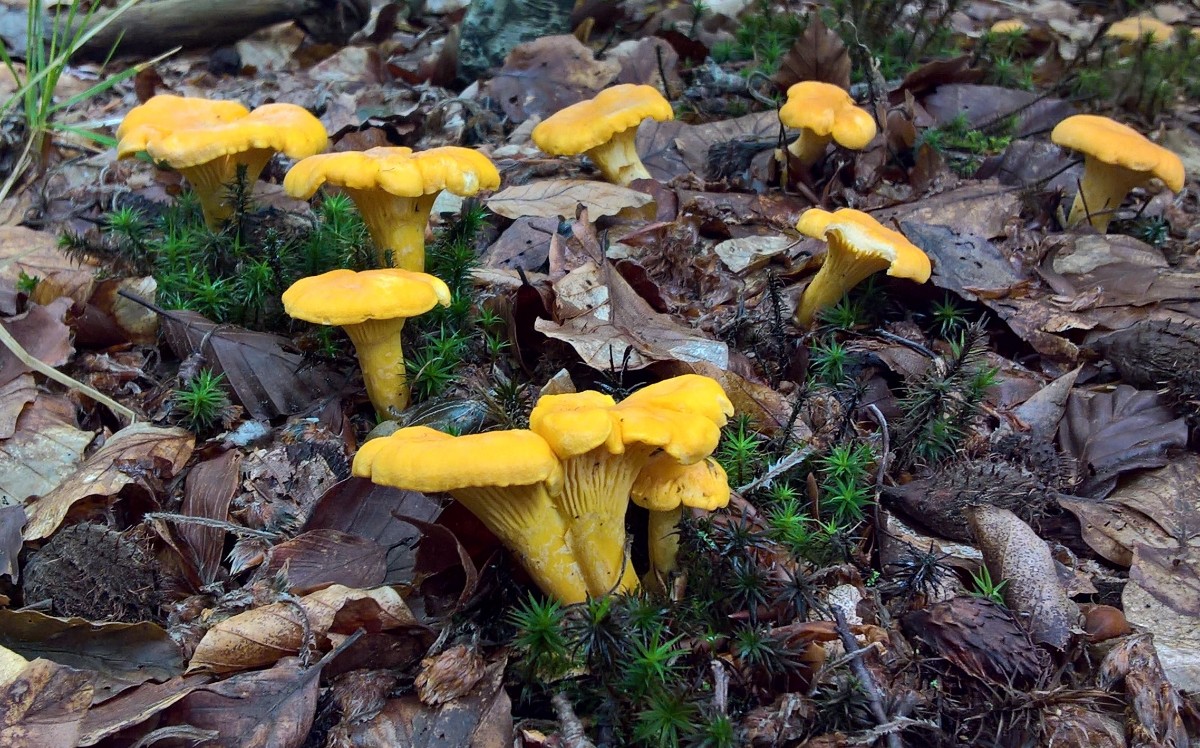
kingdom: Fungi
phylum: Basidiomycota
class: Agaricomycetes
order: Cantharellales
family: Hydnaceae
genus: Cantharellus
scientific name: Cantharellus cibarius
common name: almindelig kantarel
